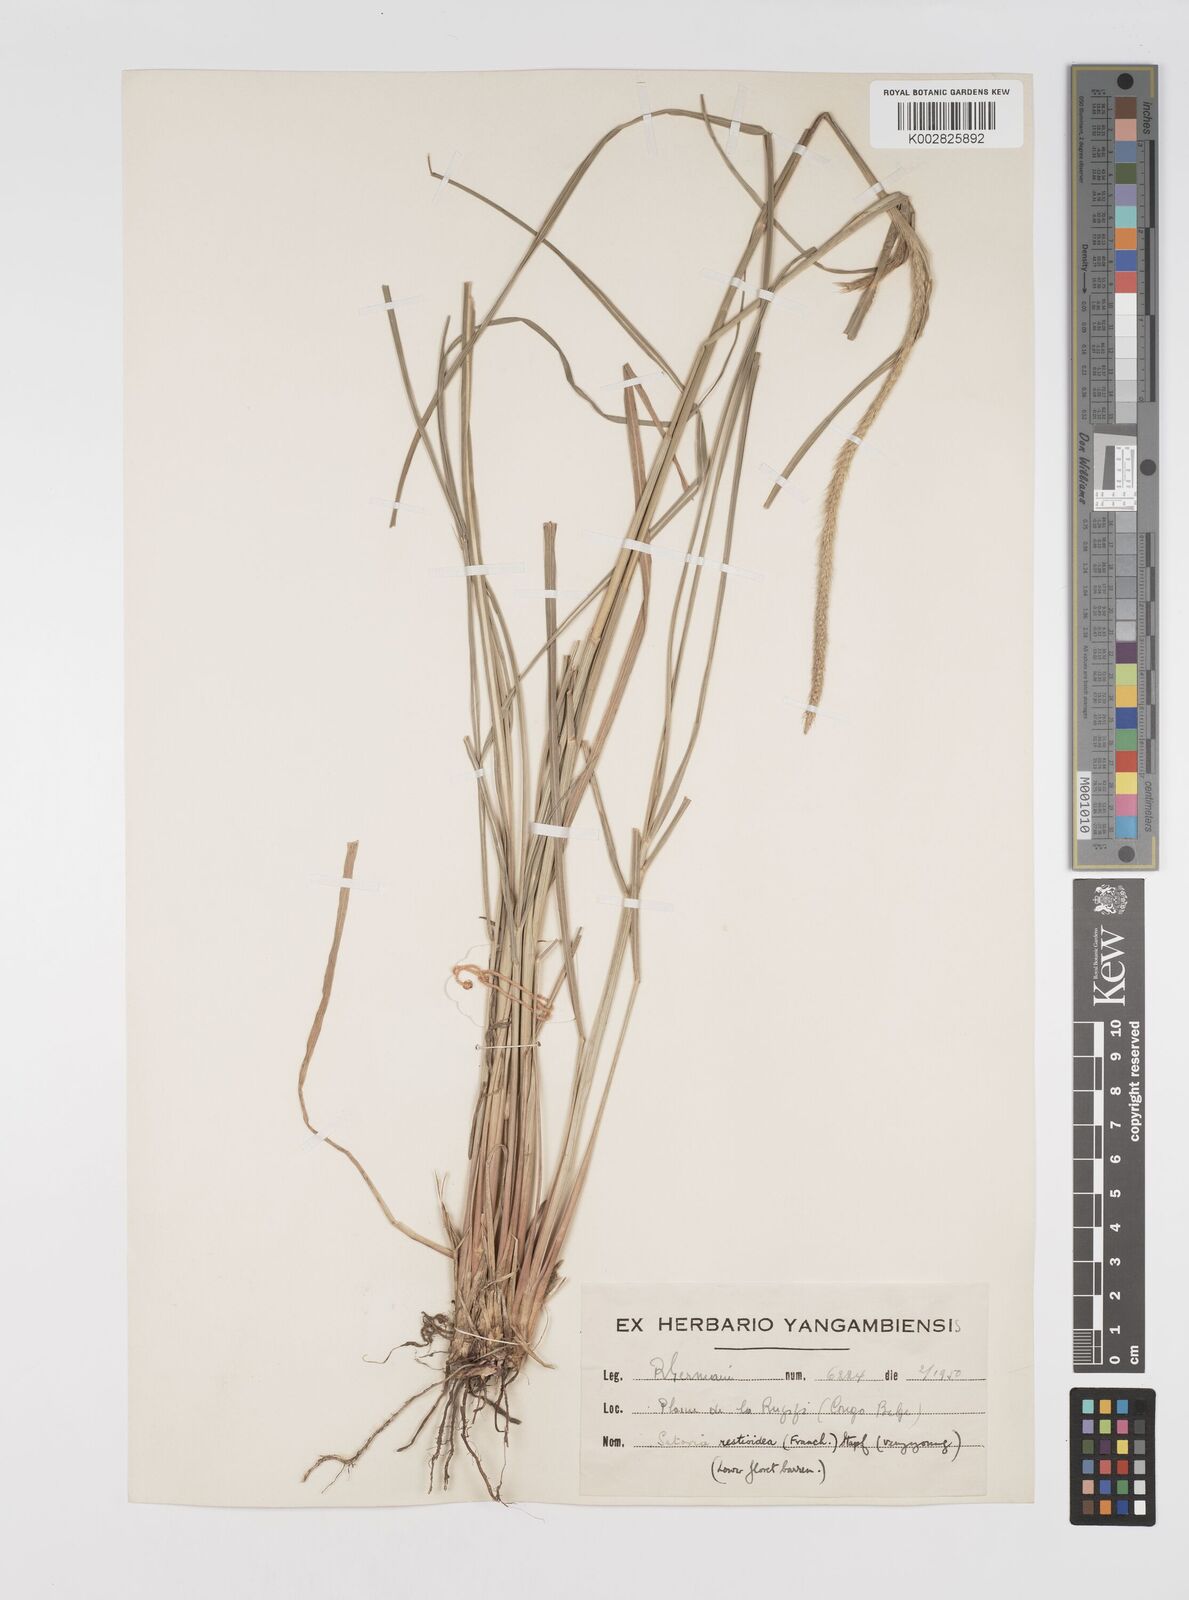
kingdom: Plantae
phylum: Tracheophyta
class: Liliopsida
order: Poales
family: Poaceae
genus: Setaria
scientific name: Setaria restioidea
